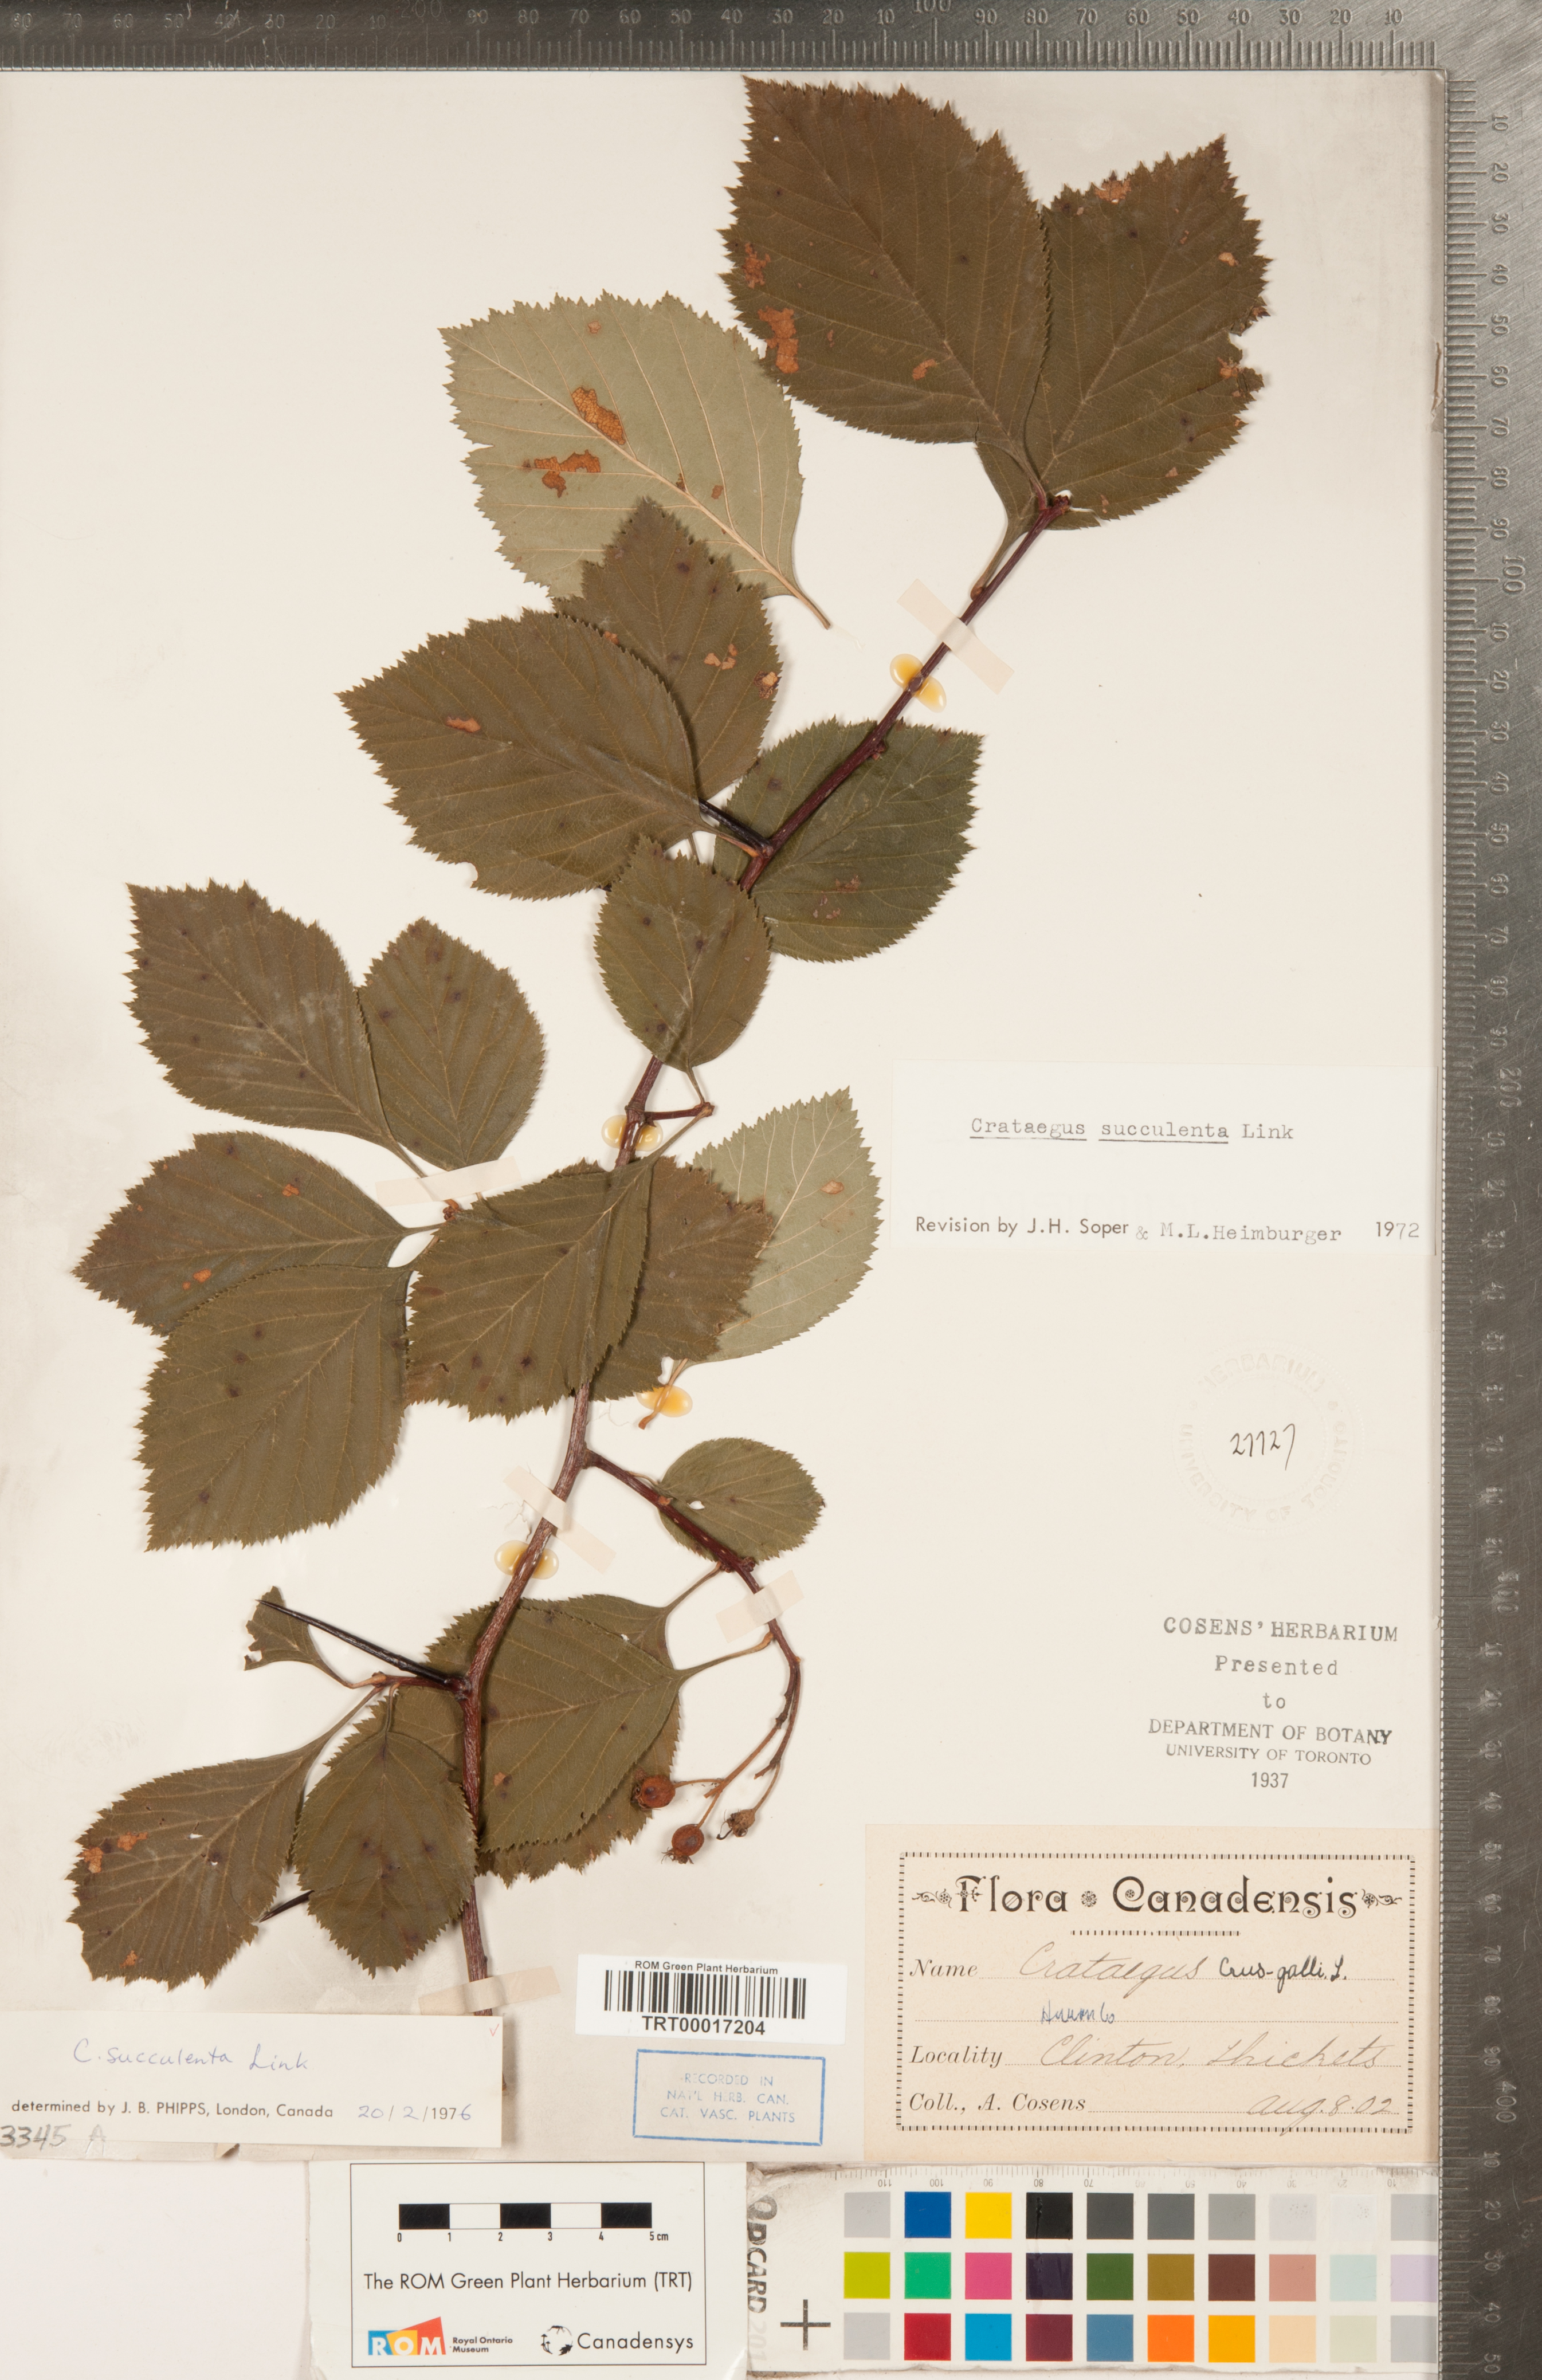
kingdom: Plantae
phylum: Tracheophyta
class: Magnoliopsida
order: Rosales
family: Rosaceae
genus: Crataegus
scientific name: Crataegus succulenta
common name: Fleshy hawthorn
